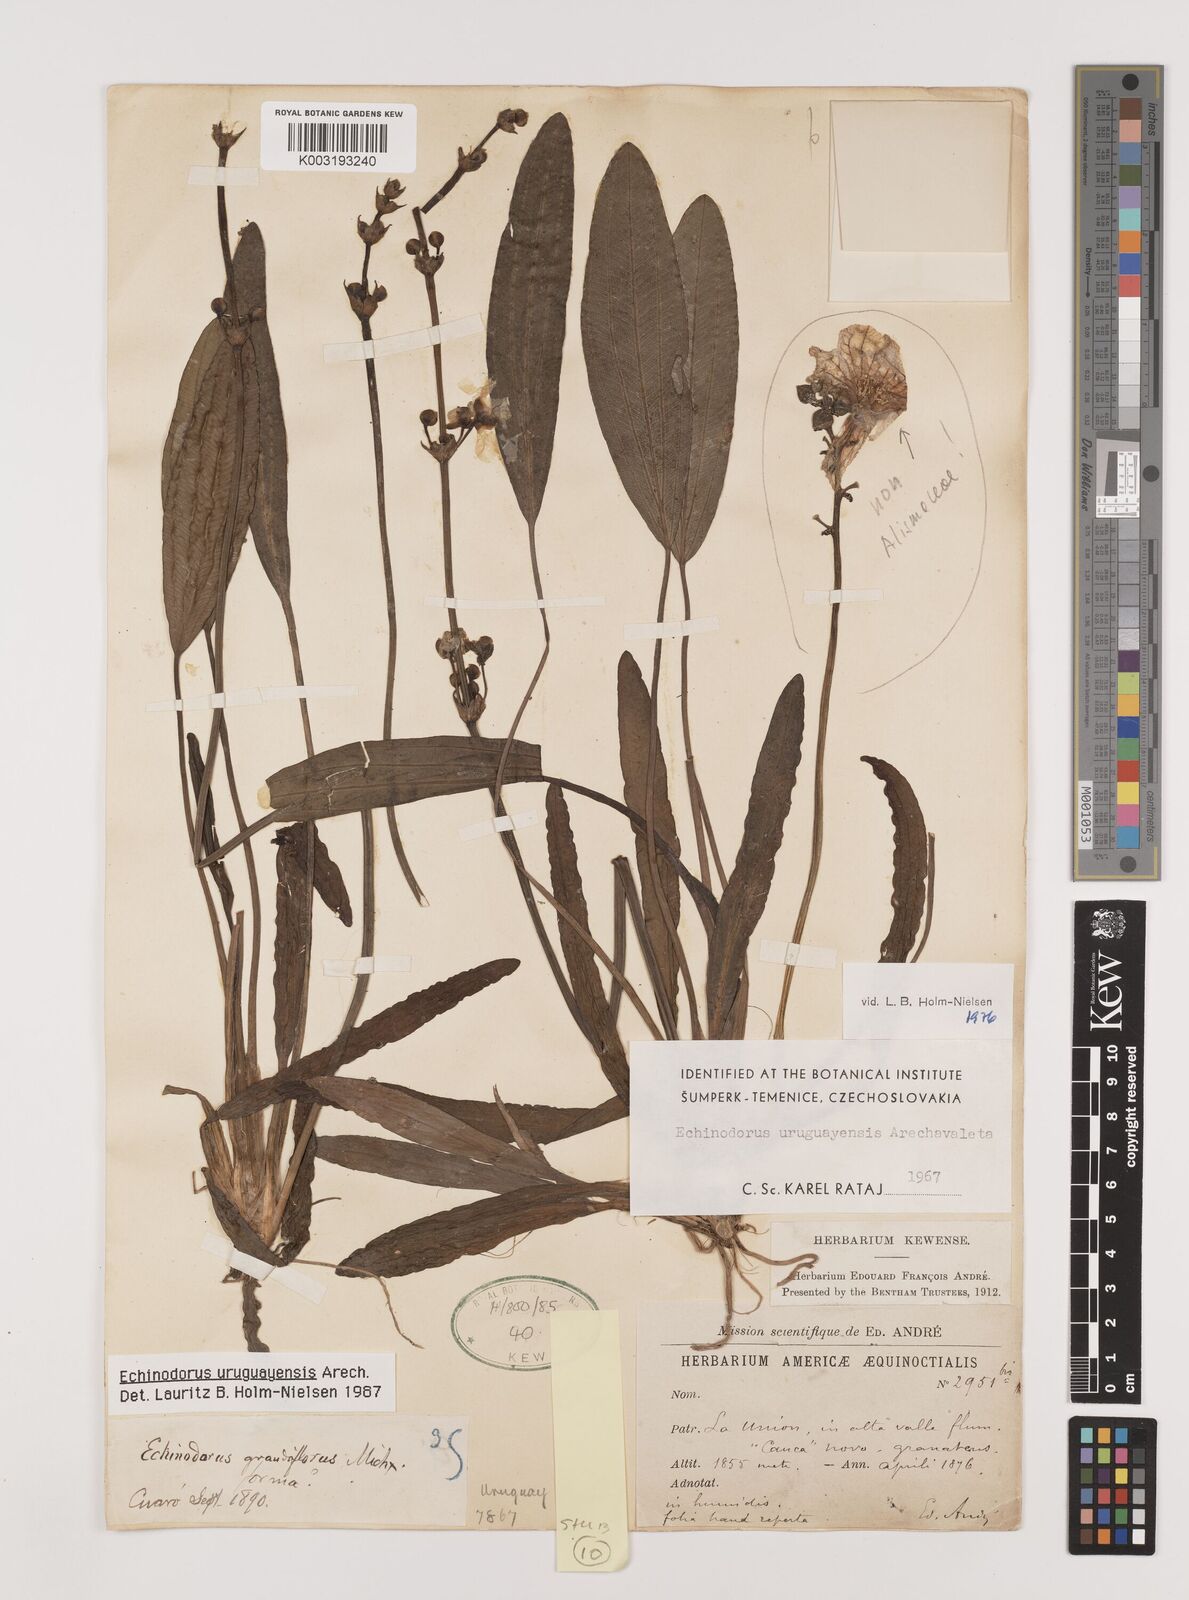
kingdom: Plantae
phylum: Tracheophyta
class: Liliopsida
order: Alismatales
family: Alismataceae
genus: Aquarius
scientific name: Aquarius uruguayensis
